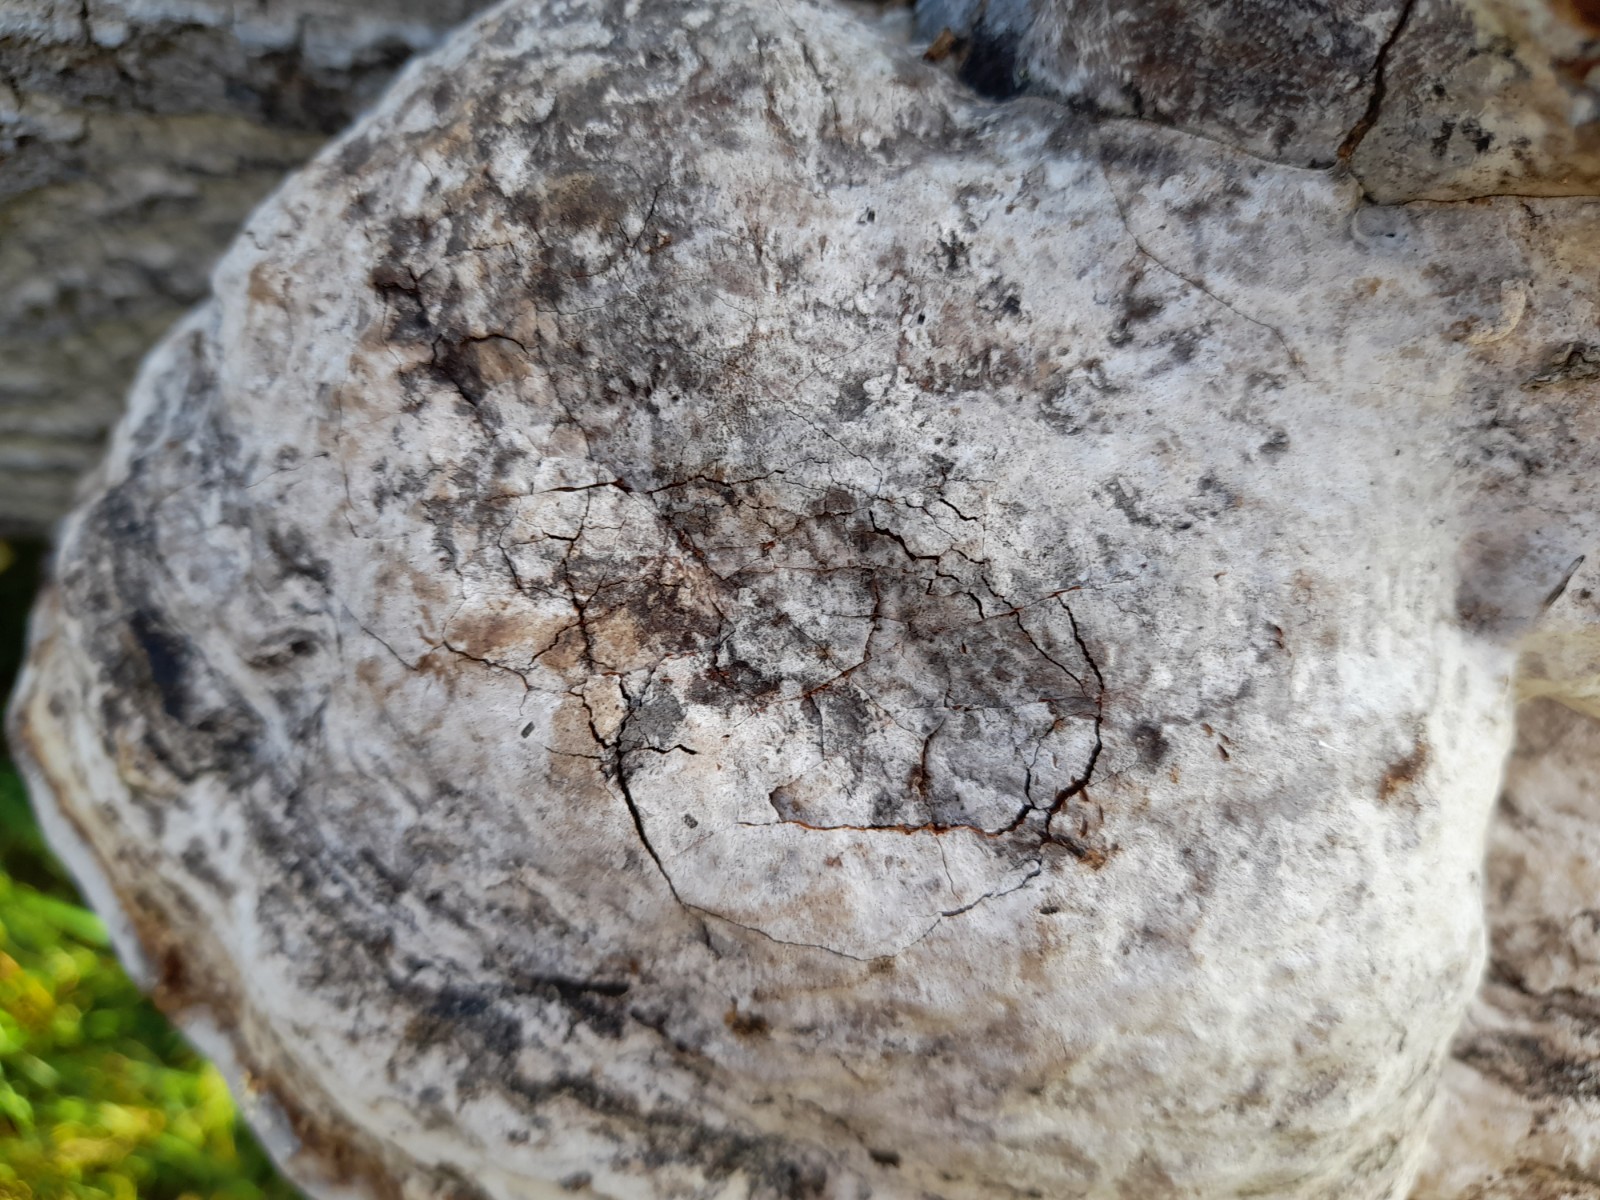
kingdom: Fungi
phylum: Basidiomycota
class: Agaricomycetes
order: Polyporales
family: Polyporaceae
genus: Fomes
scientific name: Fomes fomentarius
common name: tøndersvamp
